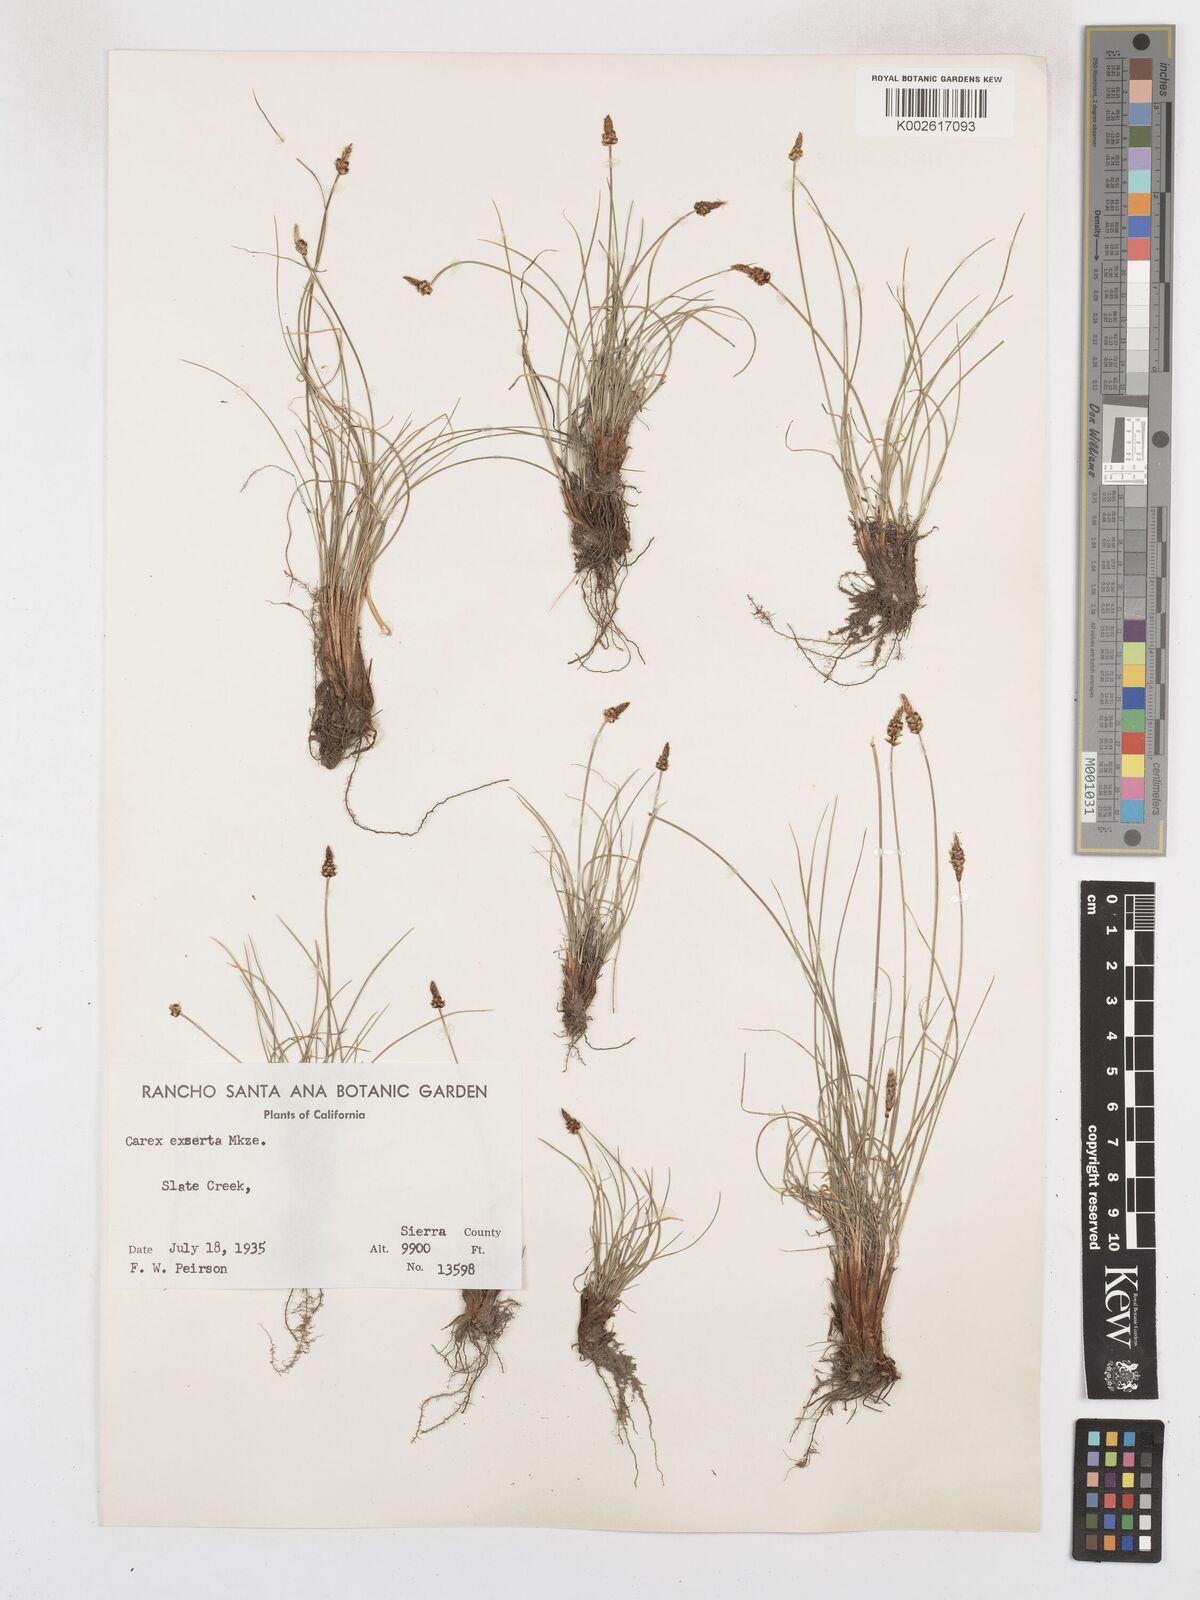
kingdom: Plantae
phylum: Tracheophyta
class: Liliopsida
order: Poales
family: Cyperaceae
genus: Carex
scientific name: Carex glossostigma
